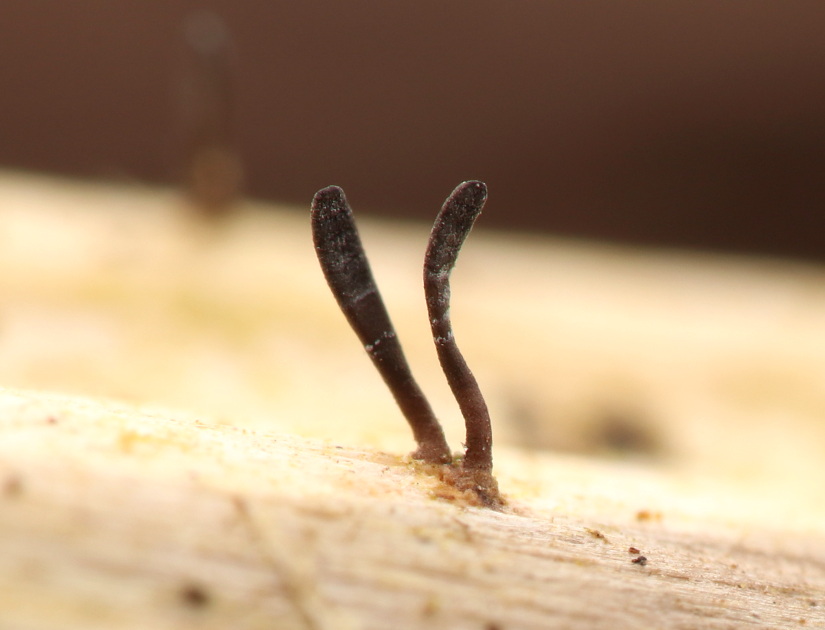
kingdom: Fungi
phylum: Ascomycota
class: Dothideomycetes
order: Acrospermales
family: Acrospermaceae
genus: Acrospermum
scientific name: Acrospermum compressum
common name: nælde-stængeltunge
